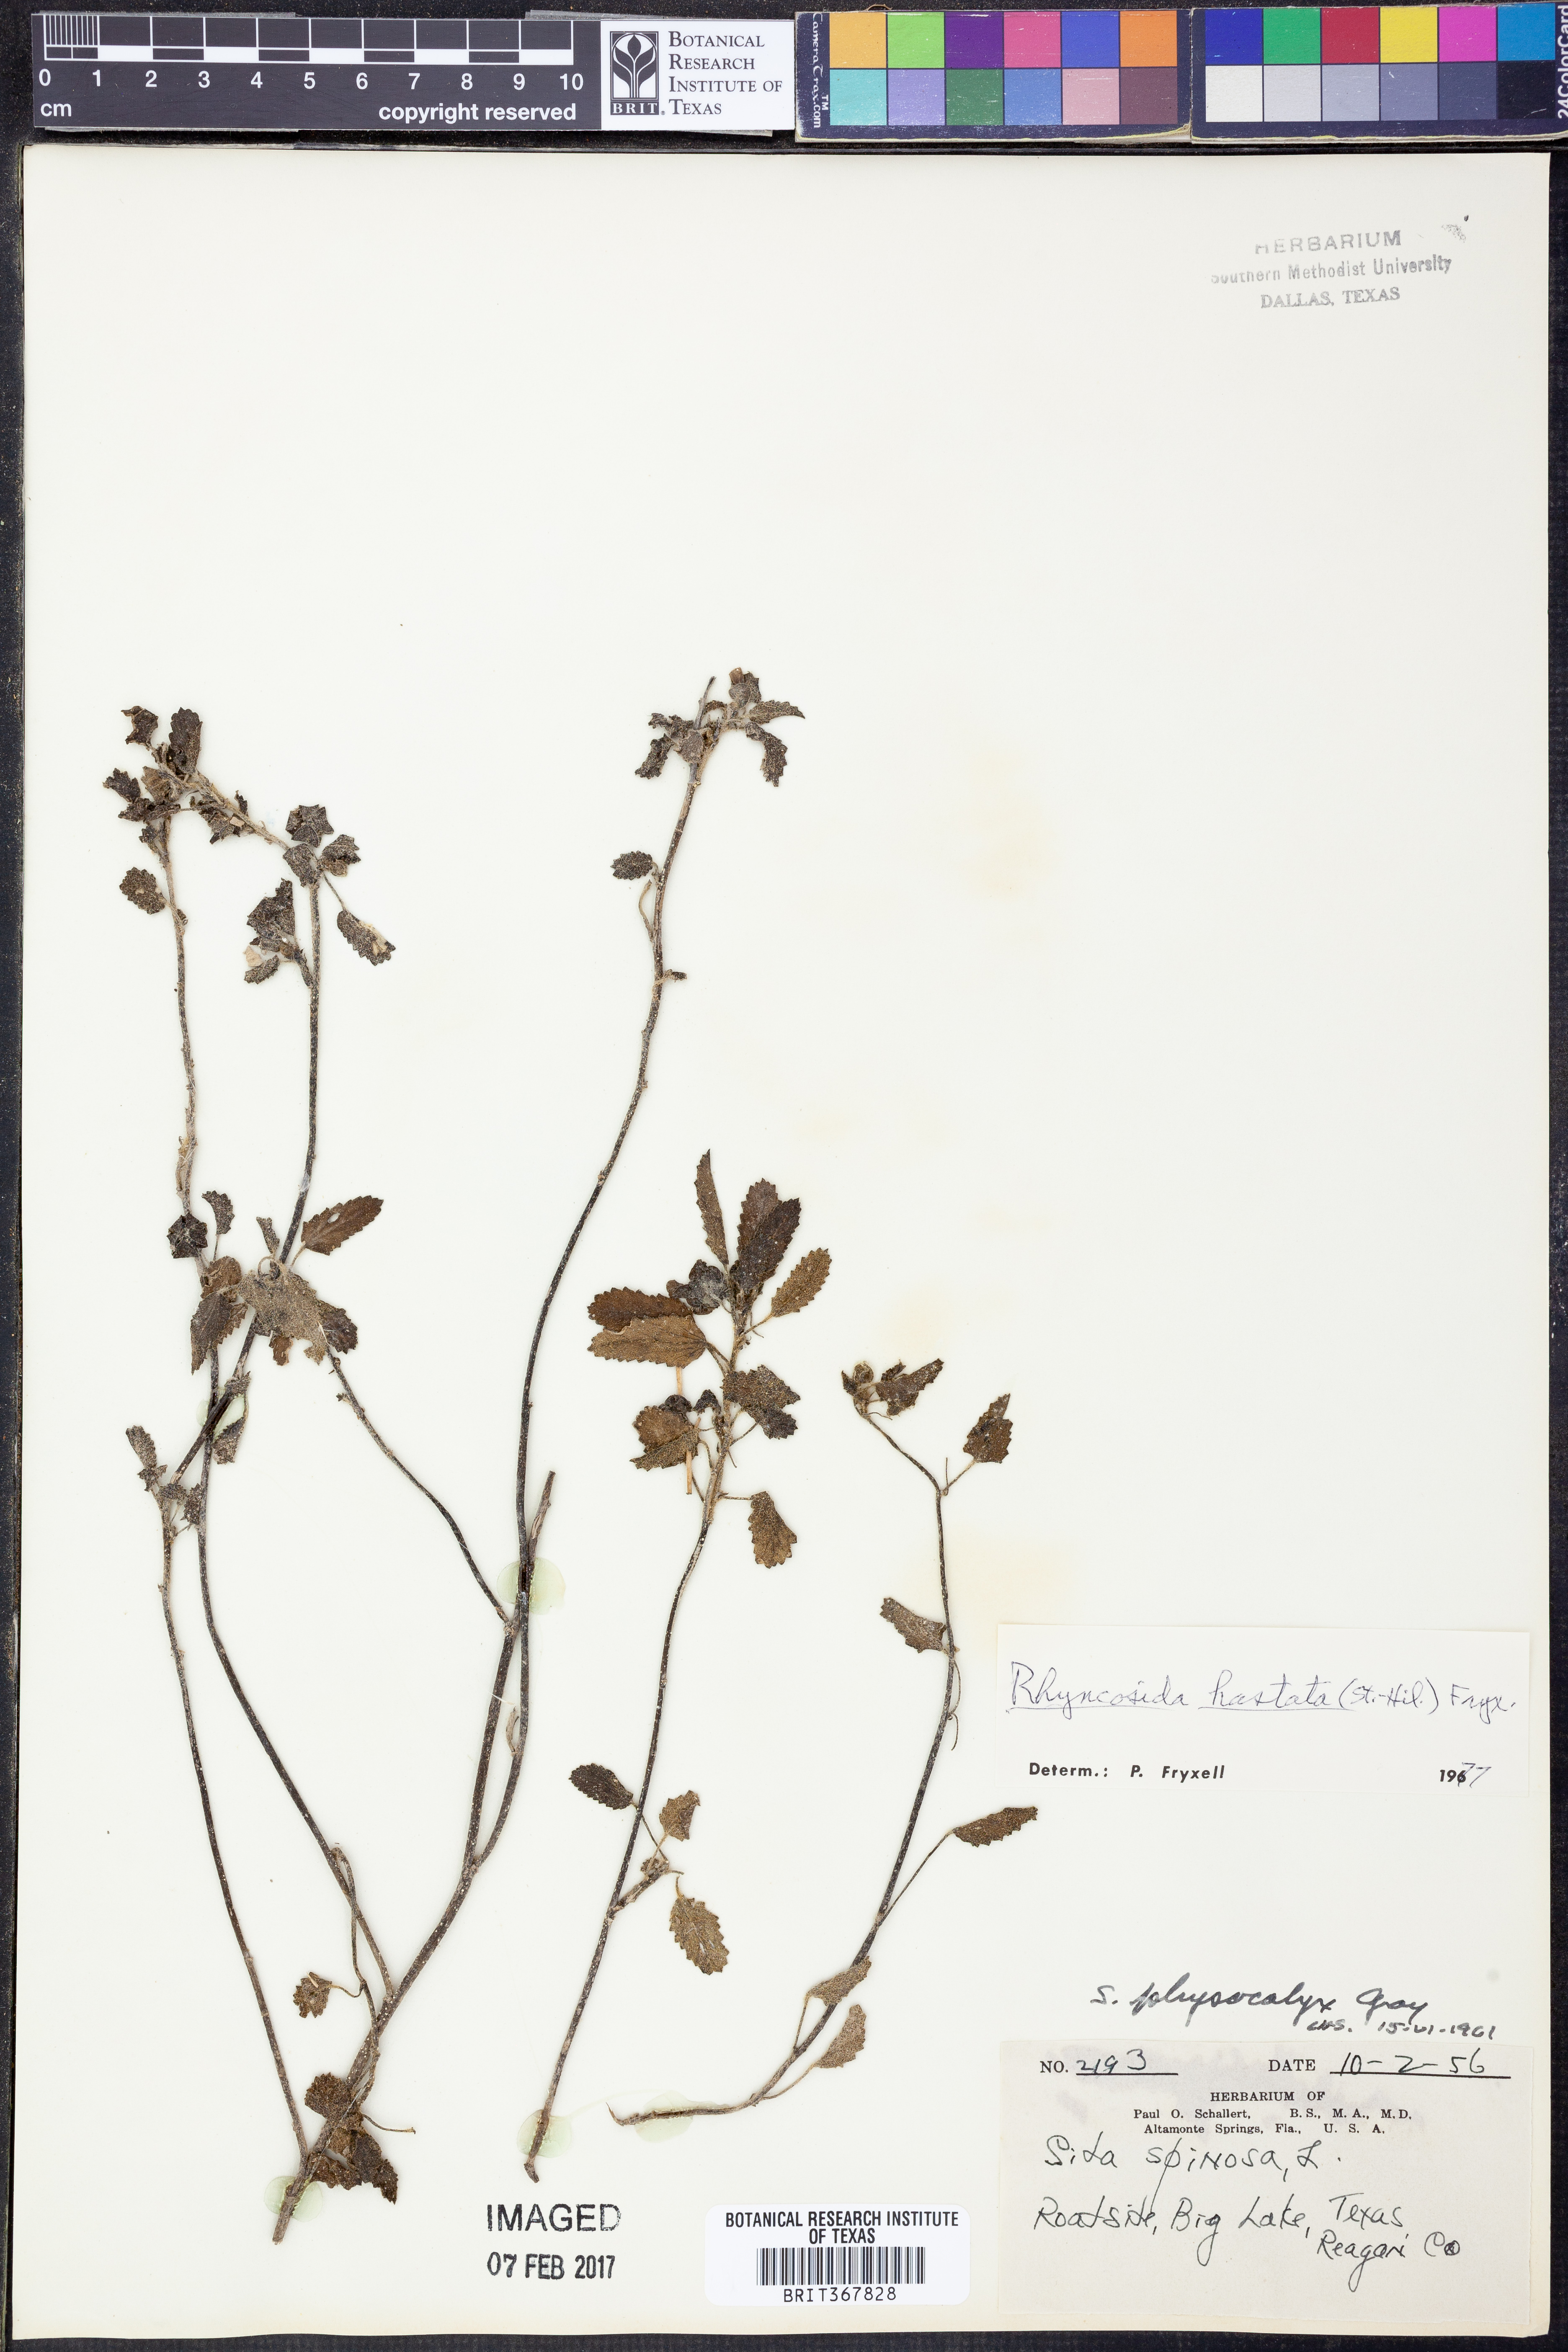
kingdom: Plantae
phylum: Tracheophyta
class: Magnoliopsida
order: Malvales
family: Malvaceae
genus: Rhynchosida
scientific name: Rhynchosida
